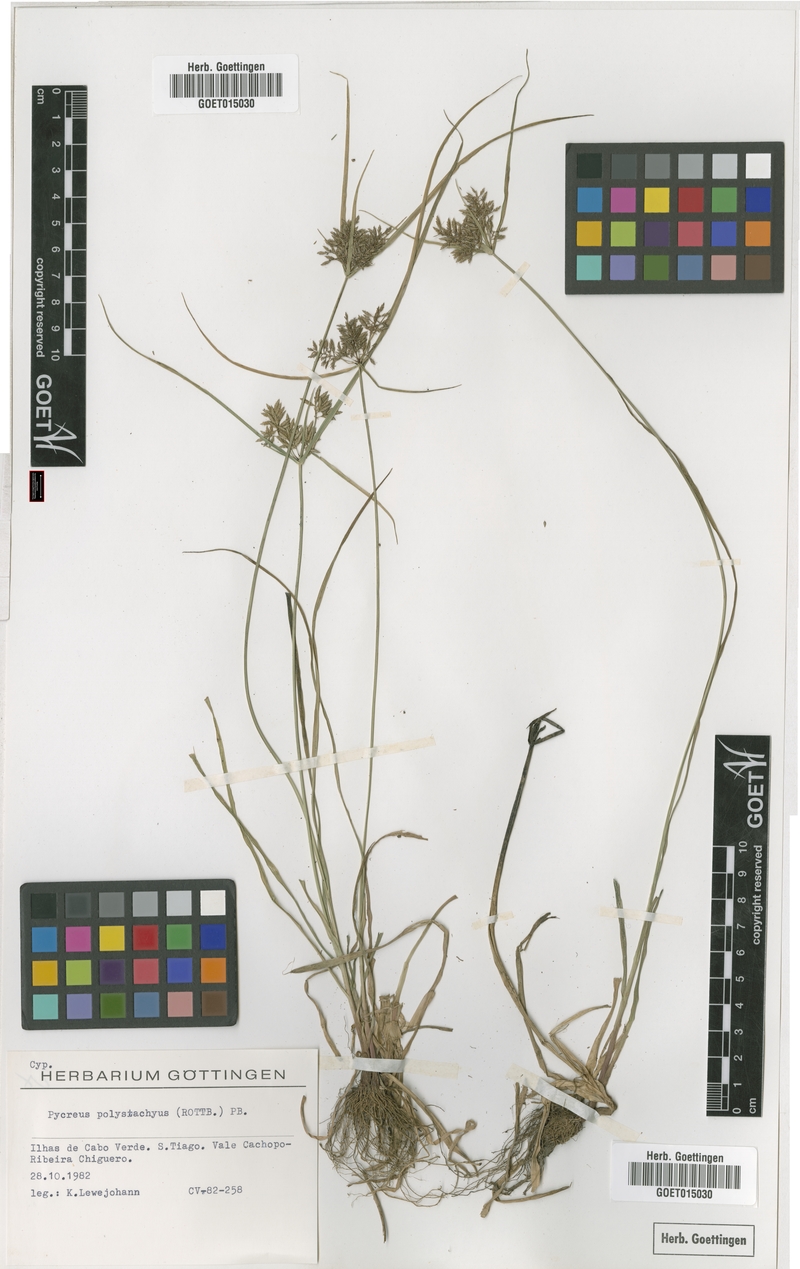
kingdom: Plantae
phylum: Tracheophyta
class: Liliopsida
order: Poales
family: Cyperaceae
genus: Cyperus
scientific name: Cyperus polystachyos
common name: Bunchy flat sedge
